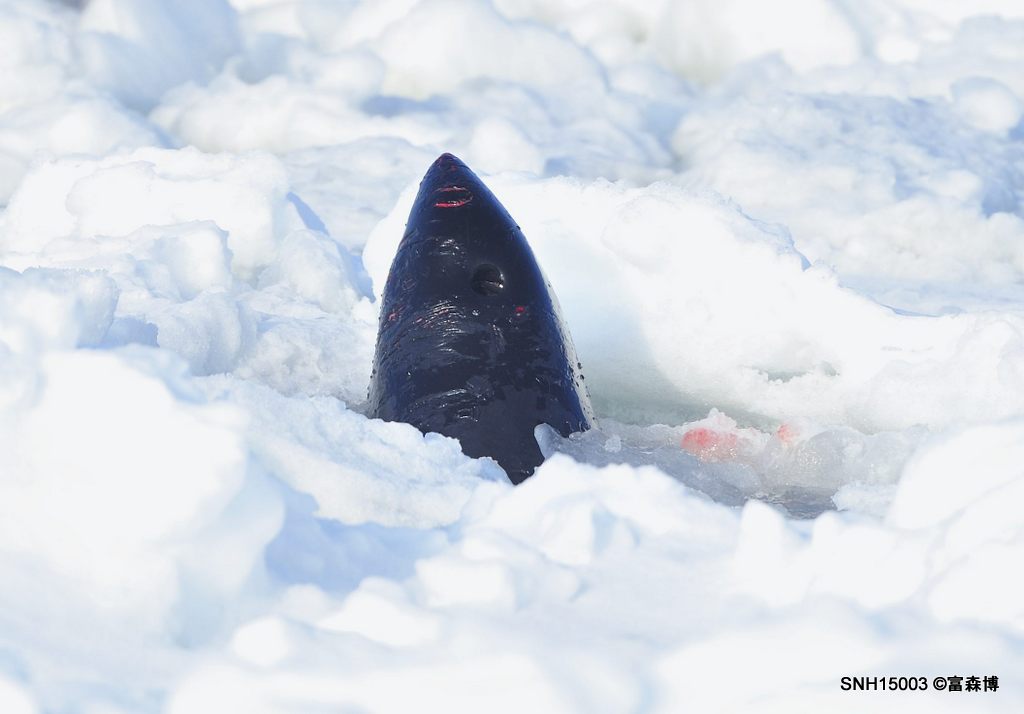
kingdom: Animalia
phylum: Chordata
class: Mammalia
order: Cetacea
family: Phocoenidae
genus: Phocoenoides
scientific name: Phocoenoides dalli
